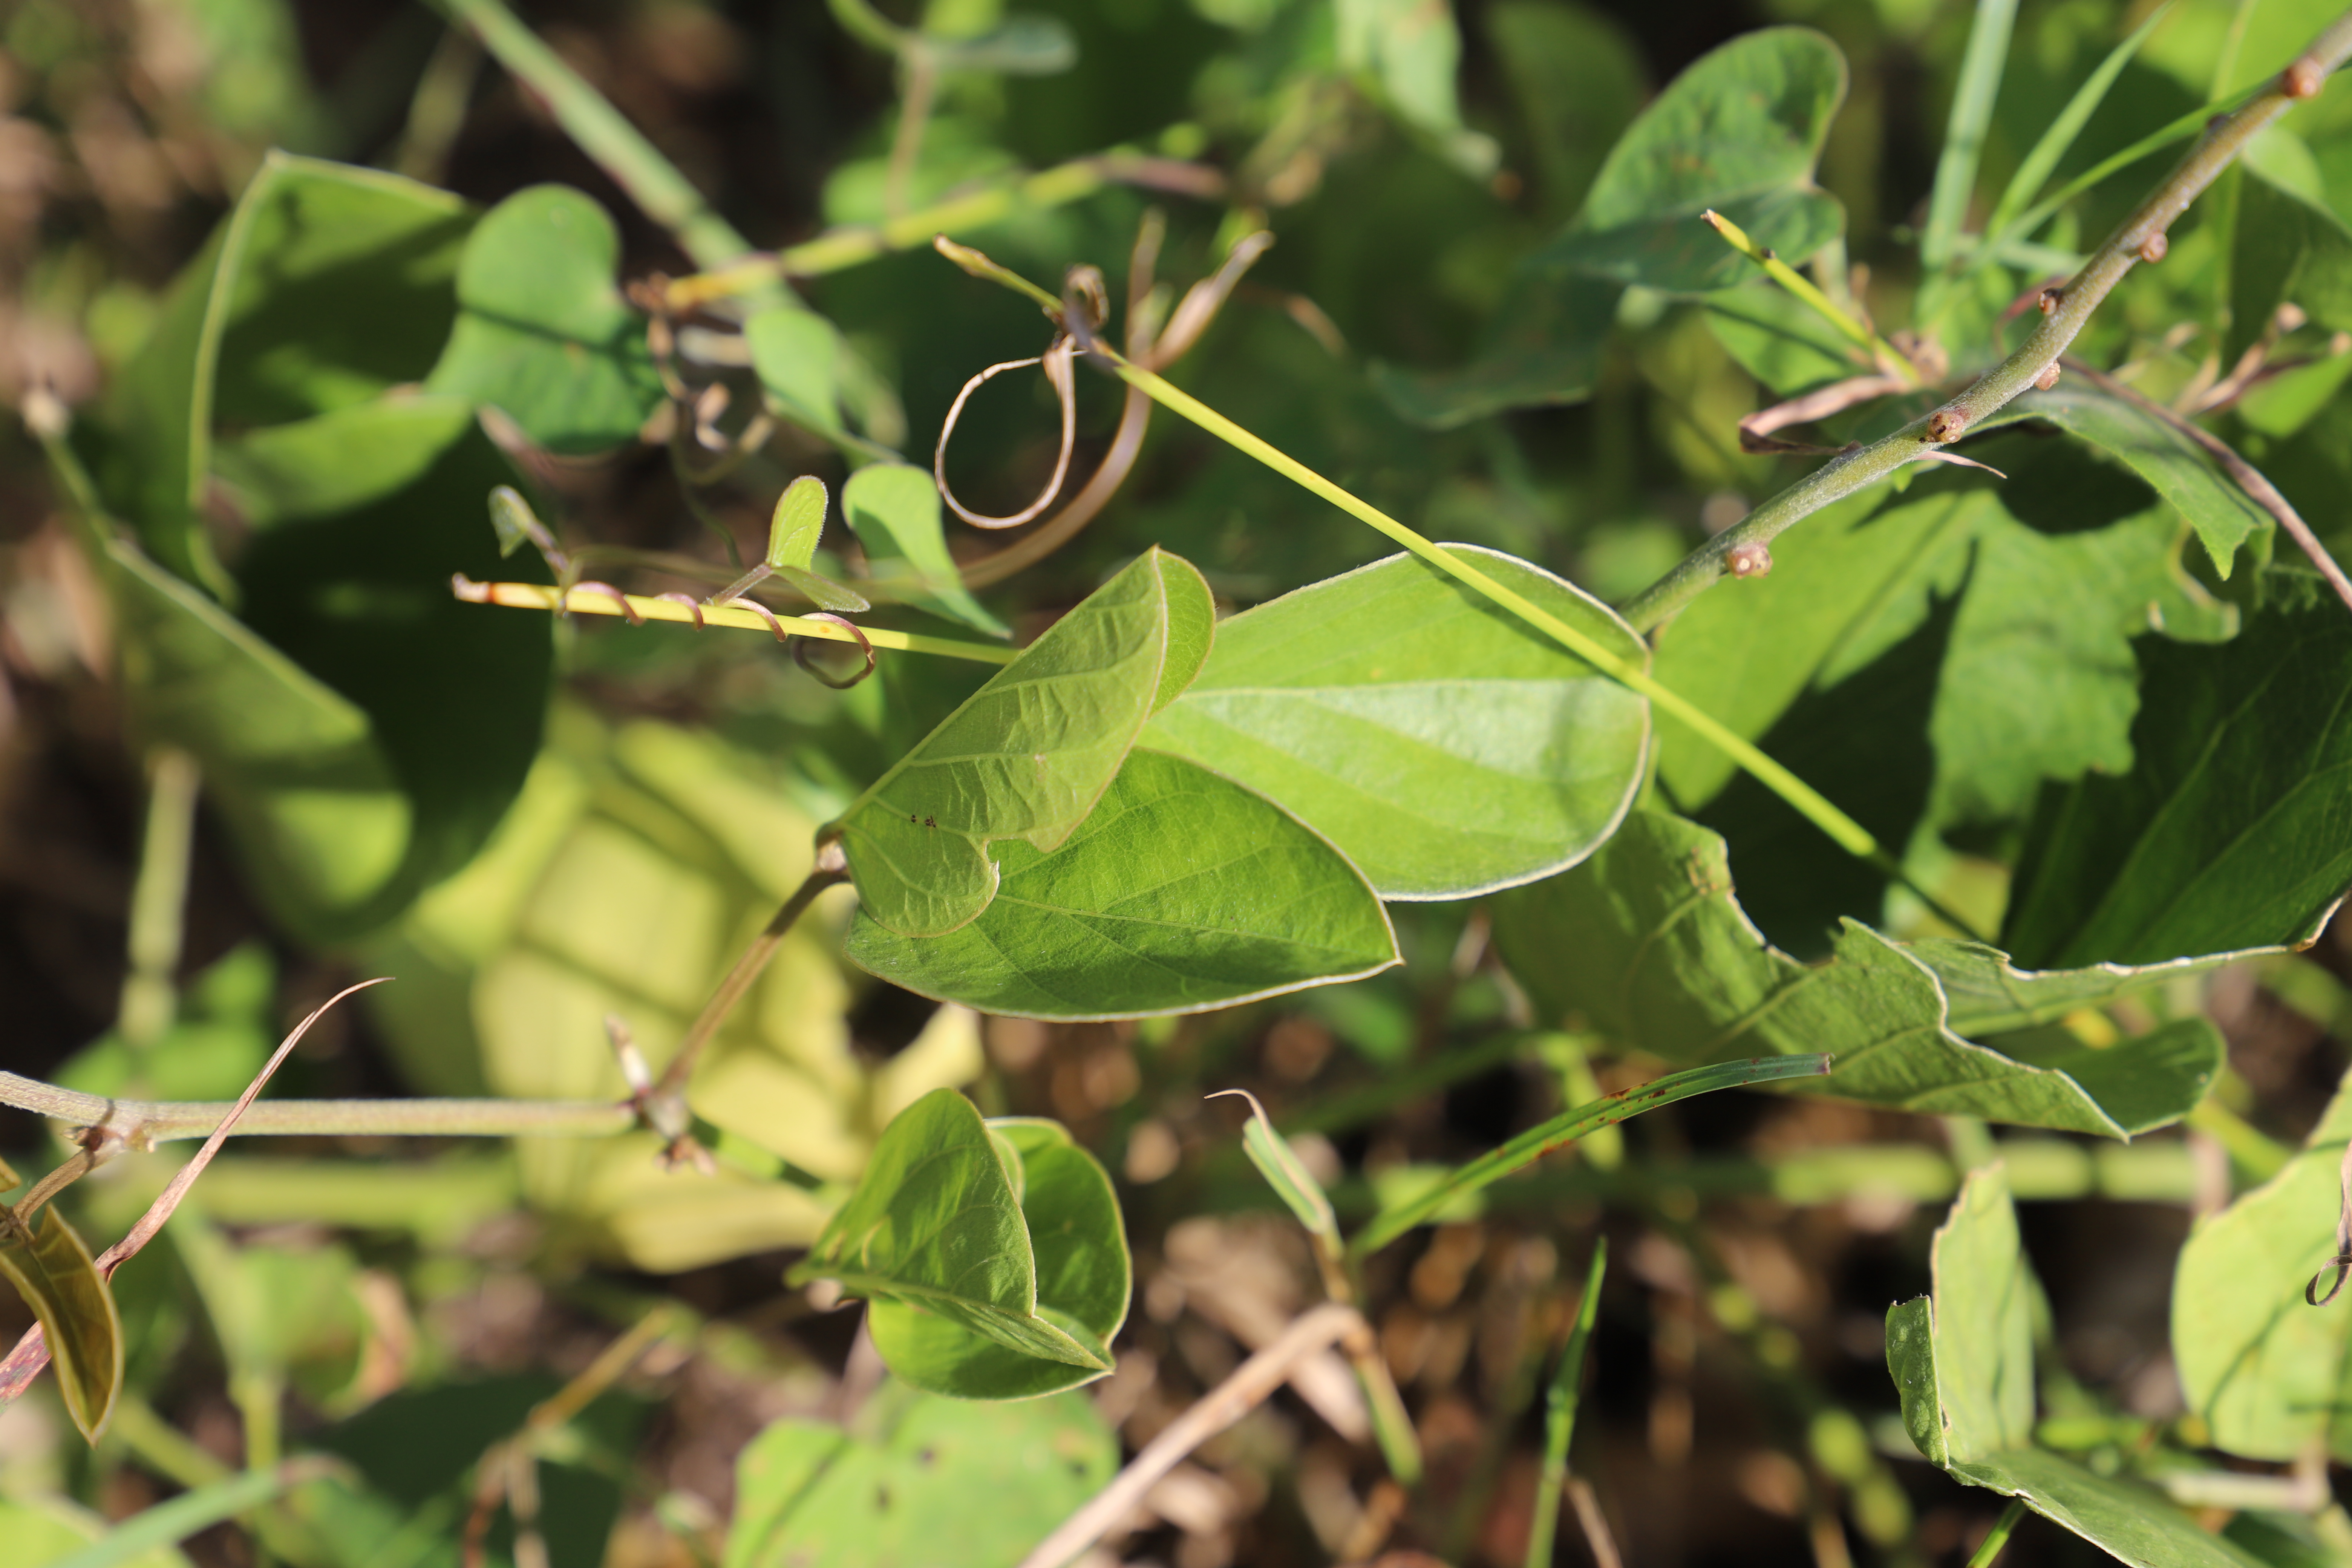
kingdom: Plantae
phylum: Tracheophyta
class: Magnoliopsida
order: Fabales
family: Fabaceae
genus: Canavalia
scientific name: Canavalia
